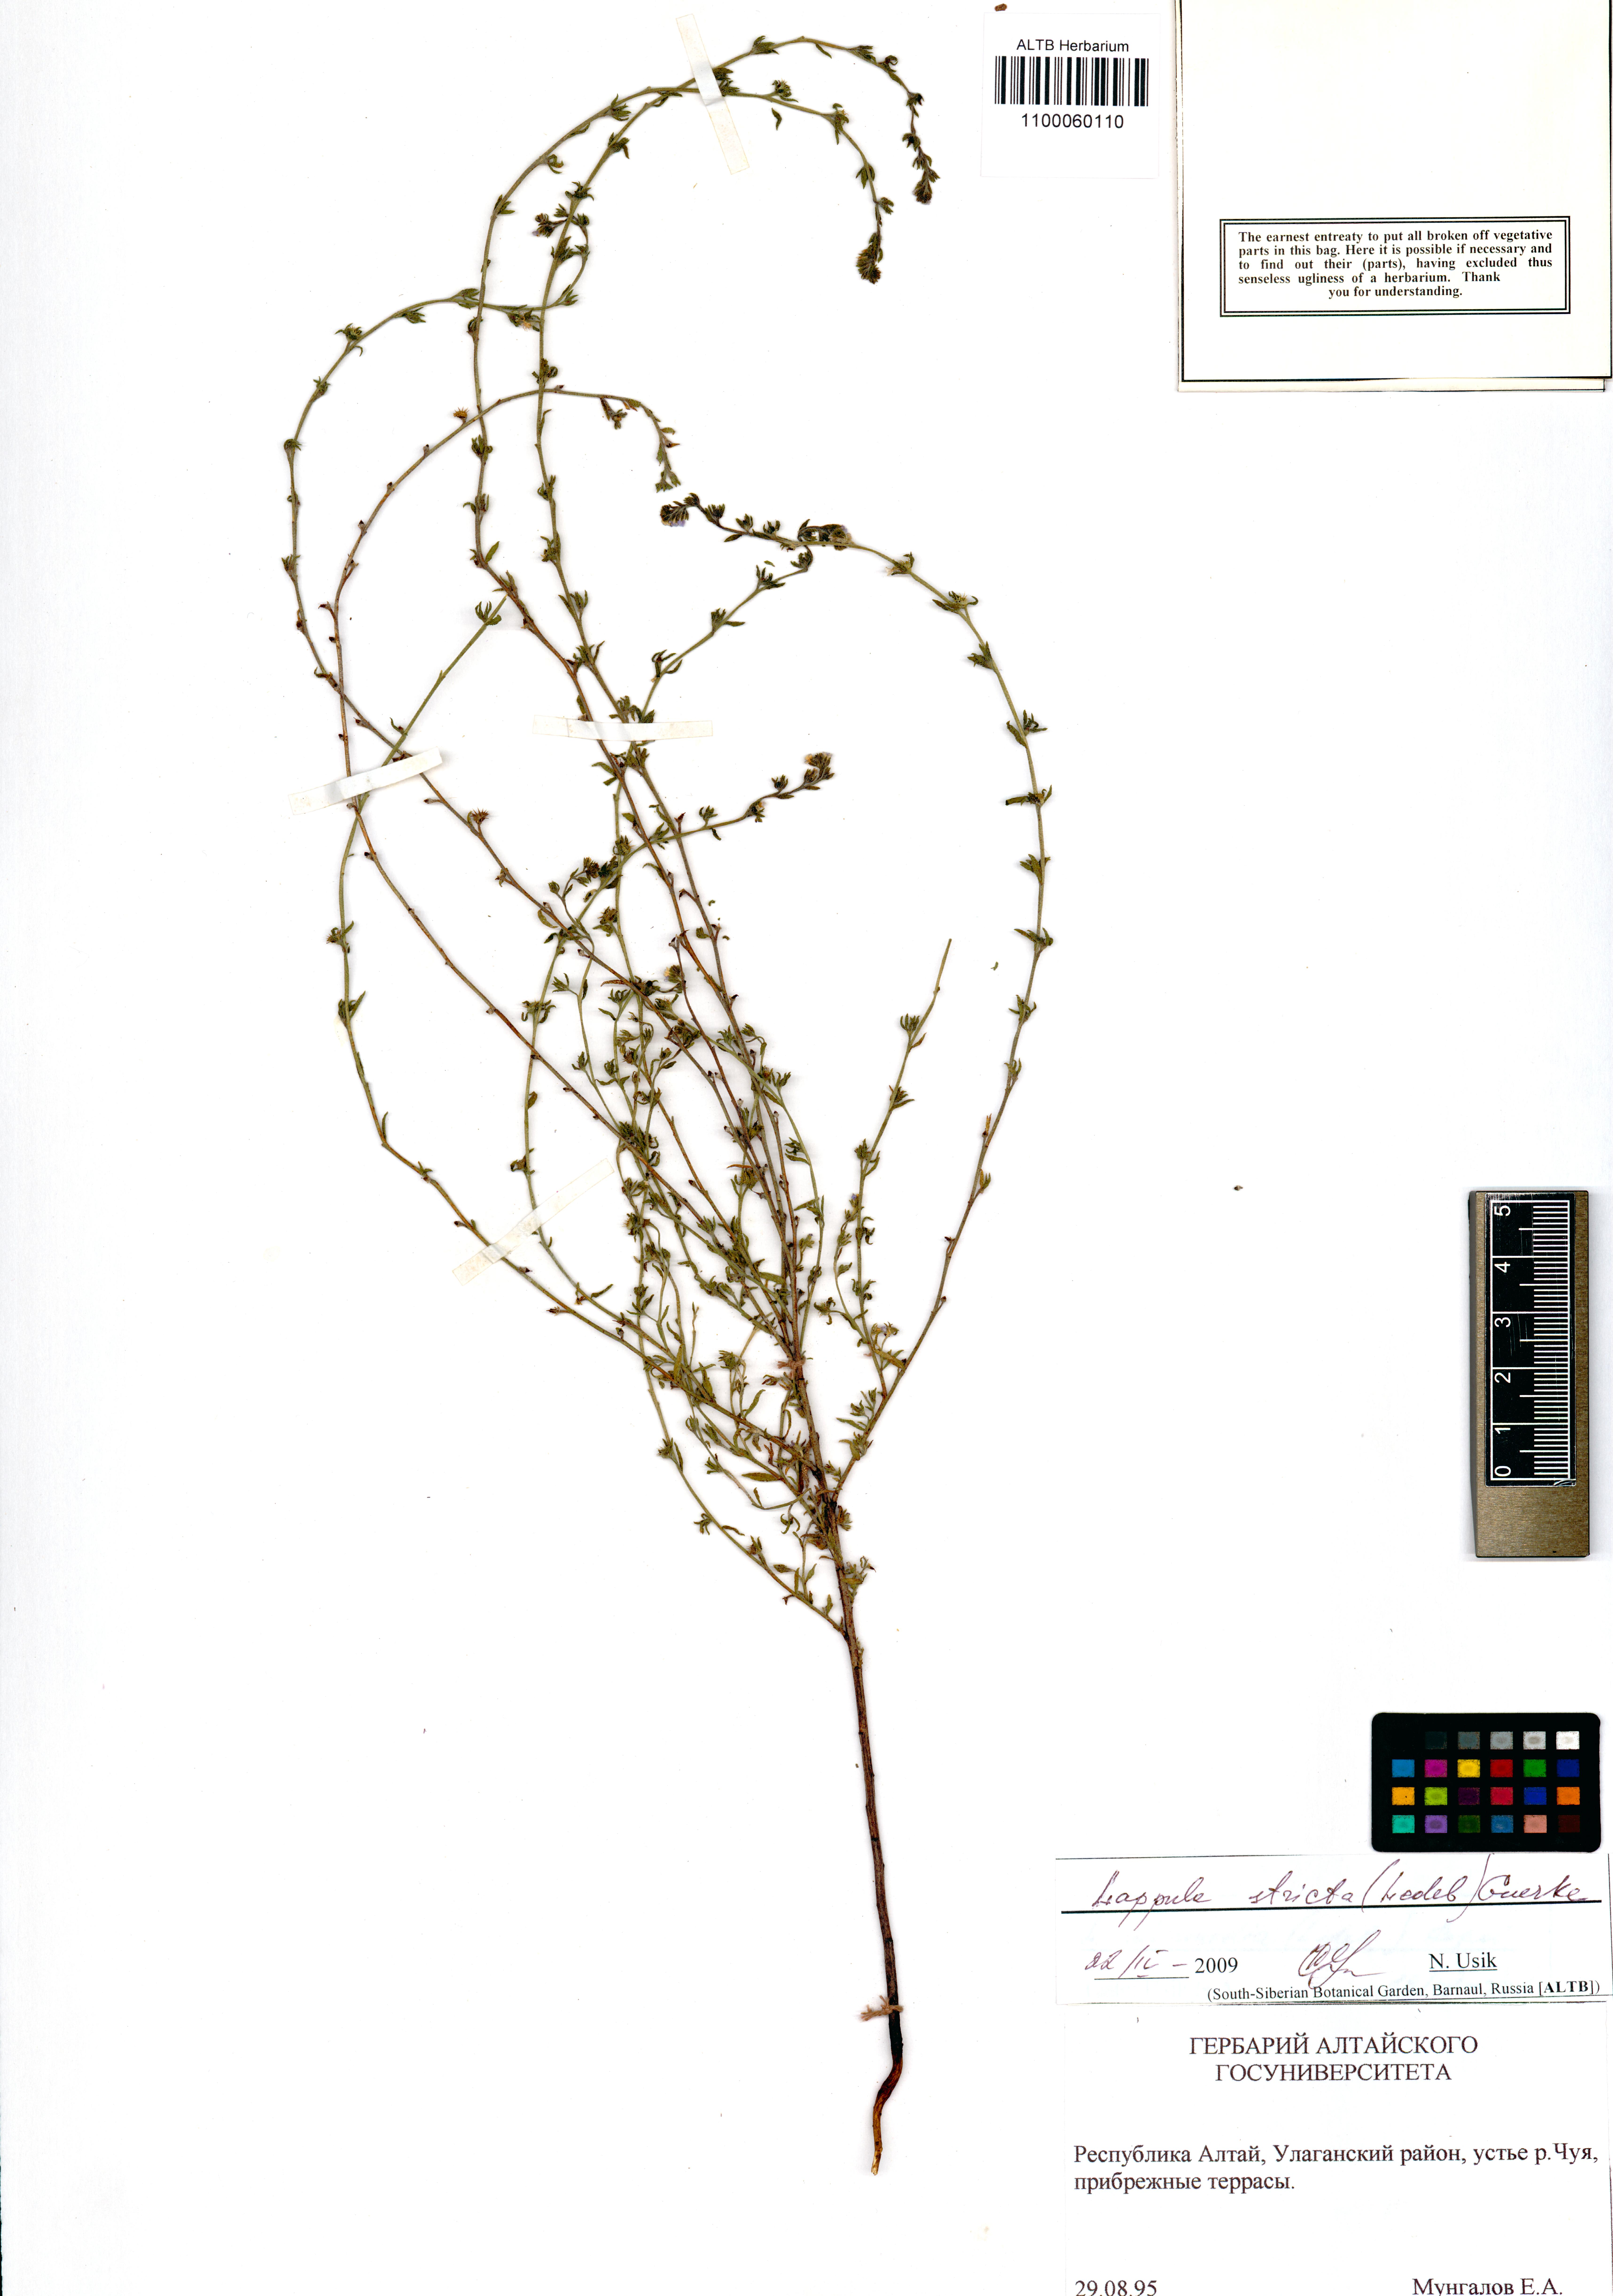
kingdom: Plantae
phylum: Tracheophyta
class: Magnoliopsida
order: Boraginales
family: Boraginaceae
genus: Lappula
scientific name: Lappula stricta
